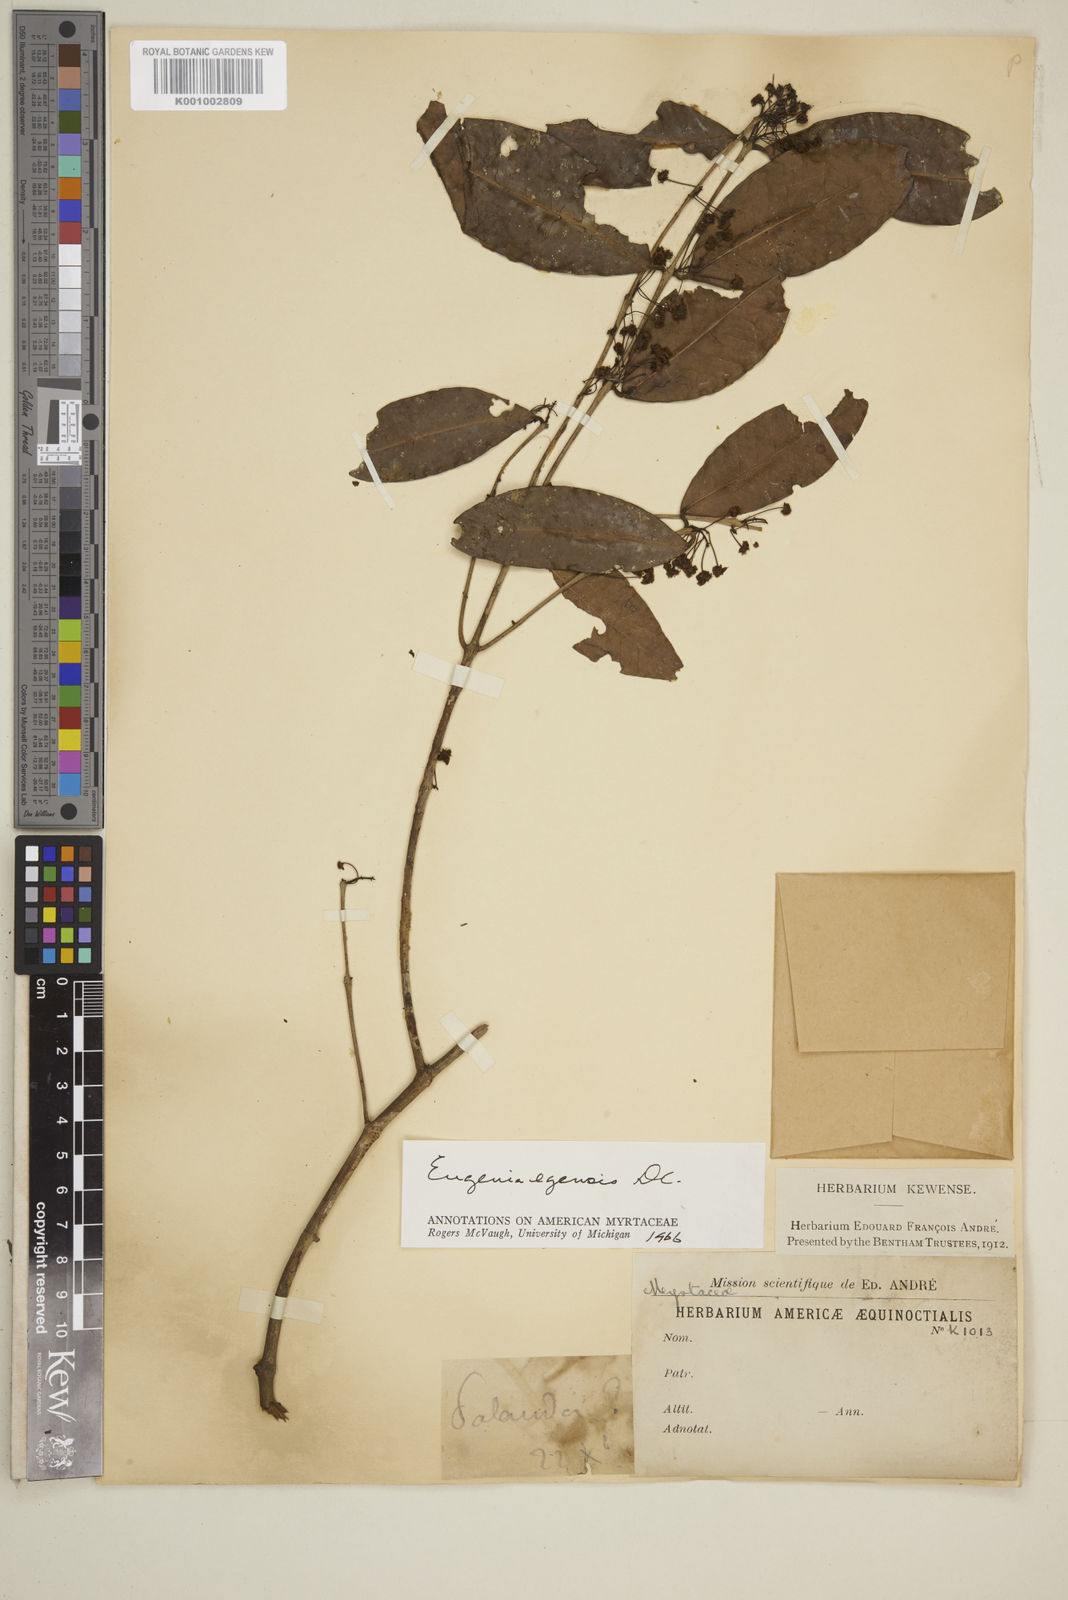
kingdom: Plantae
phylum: Tracheophyta
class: Magnoliopsida
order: Myrtales
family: Myrtaceae
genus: Eugenia
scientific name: Eugenia egensis
